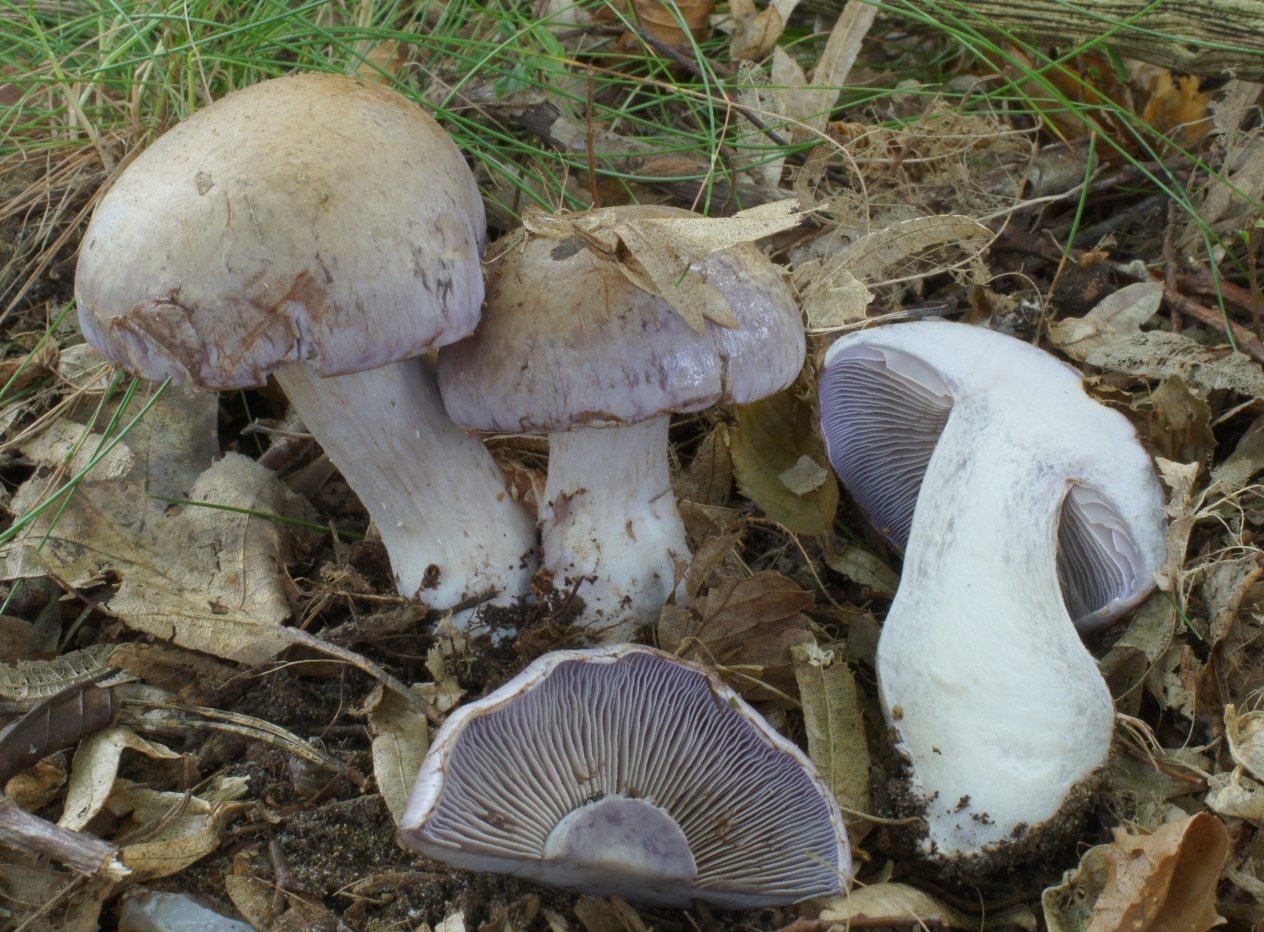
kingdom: Fungi
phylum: Basidiomycota
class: Agaricomycetes
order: Agaricales
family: Cortinariaceae
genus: Cortinarius
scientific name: Cortinarius largus
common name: violetrandet slørhat
